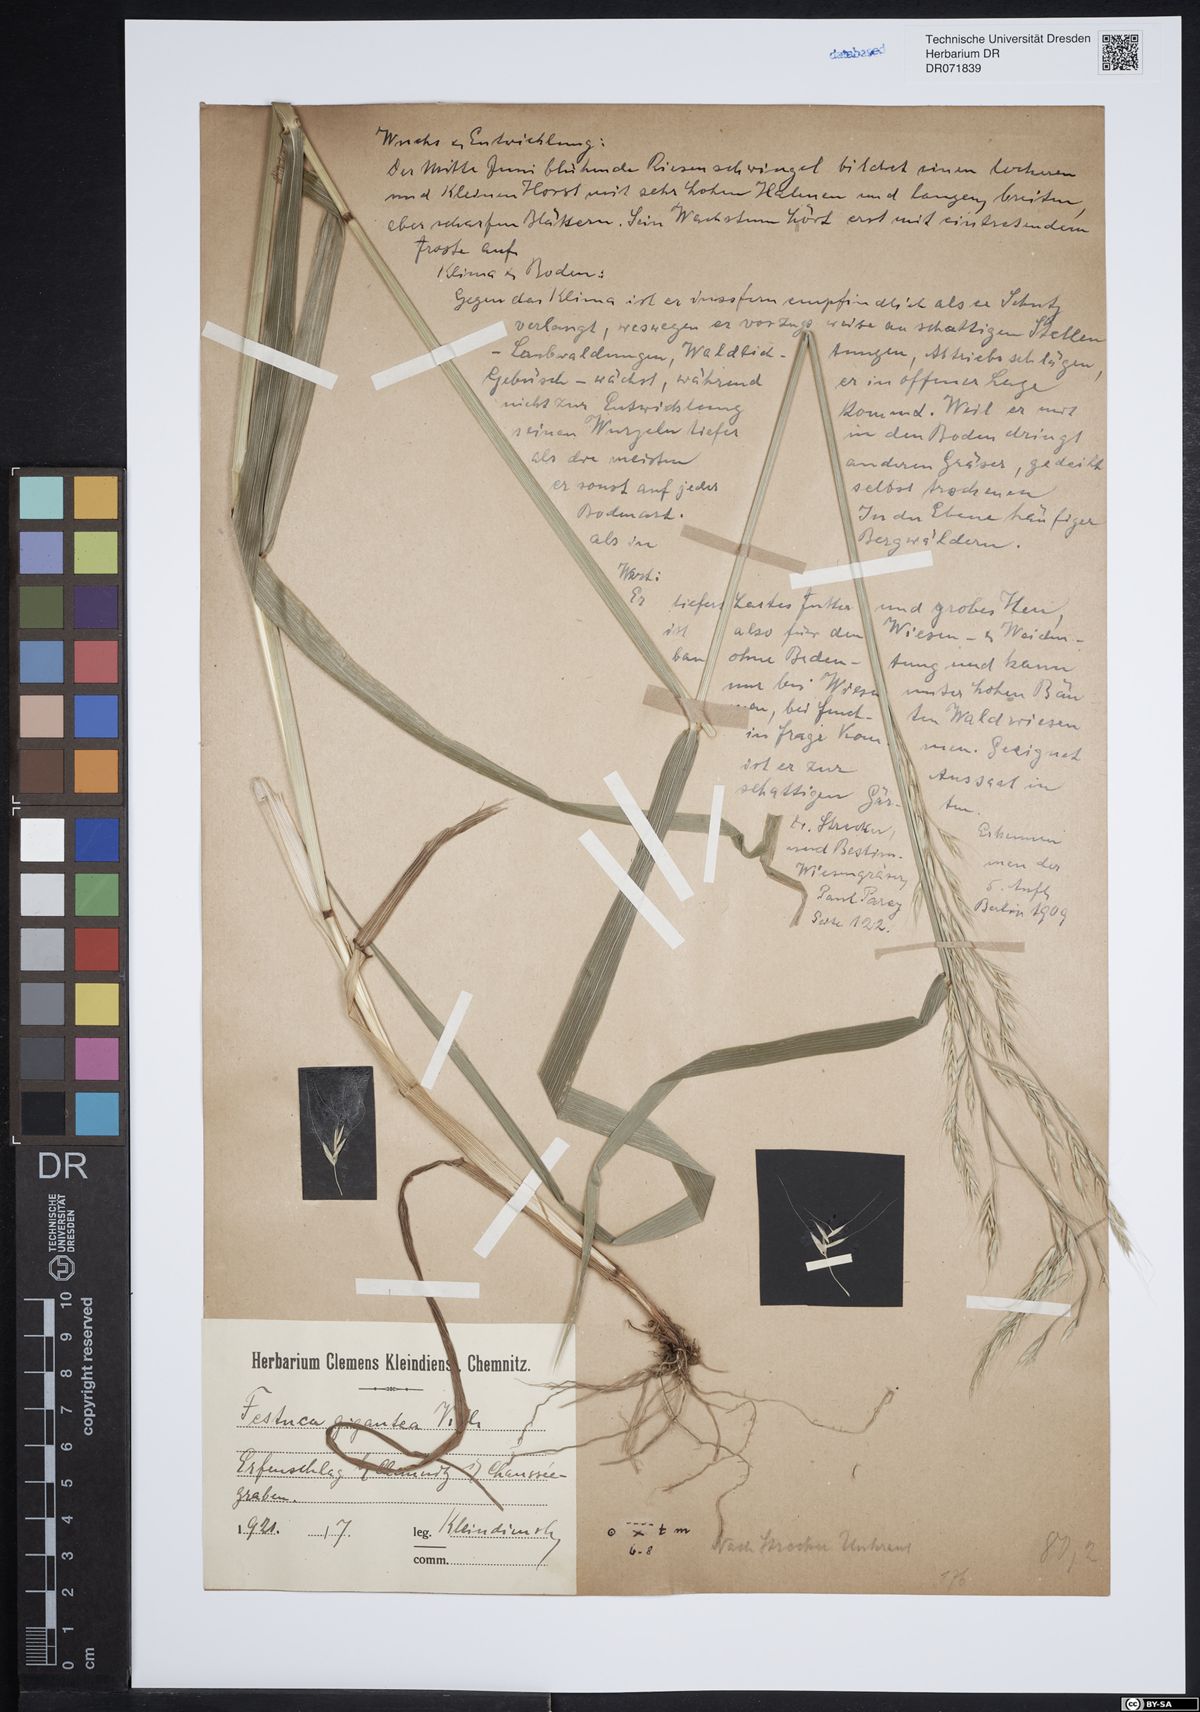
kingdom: Plantae
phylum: Tracheophyta
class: Liliopsida
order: Poales
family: Poaceae
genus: Lolium
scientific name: Lolium giganteum
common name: Giant fescue
